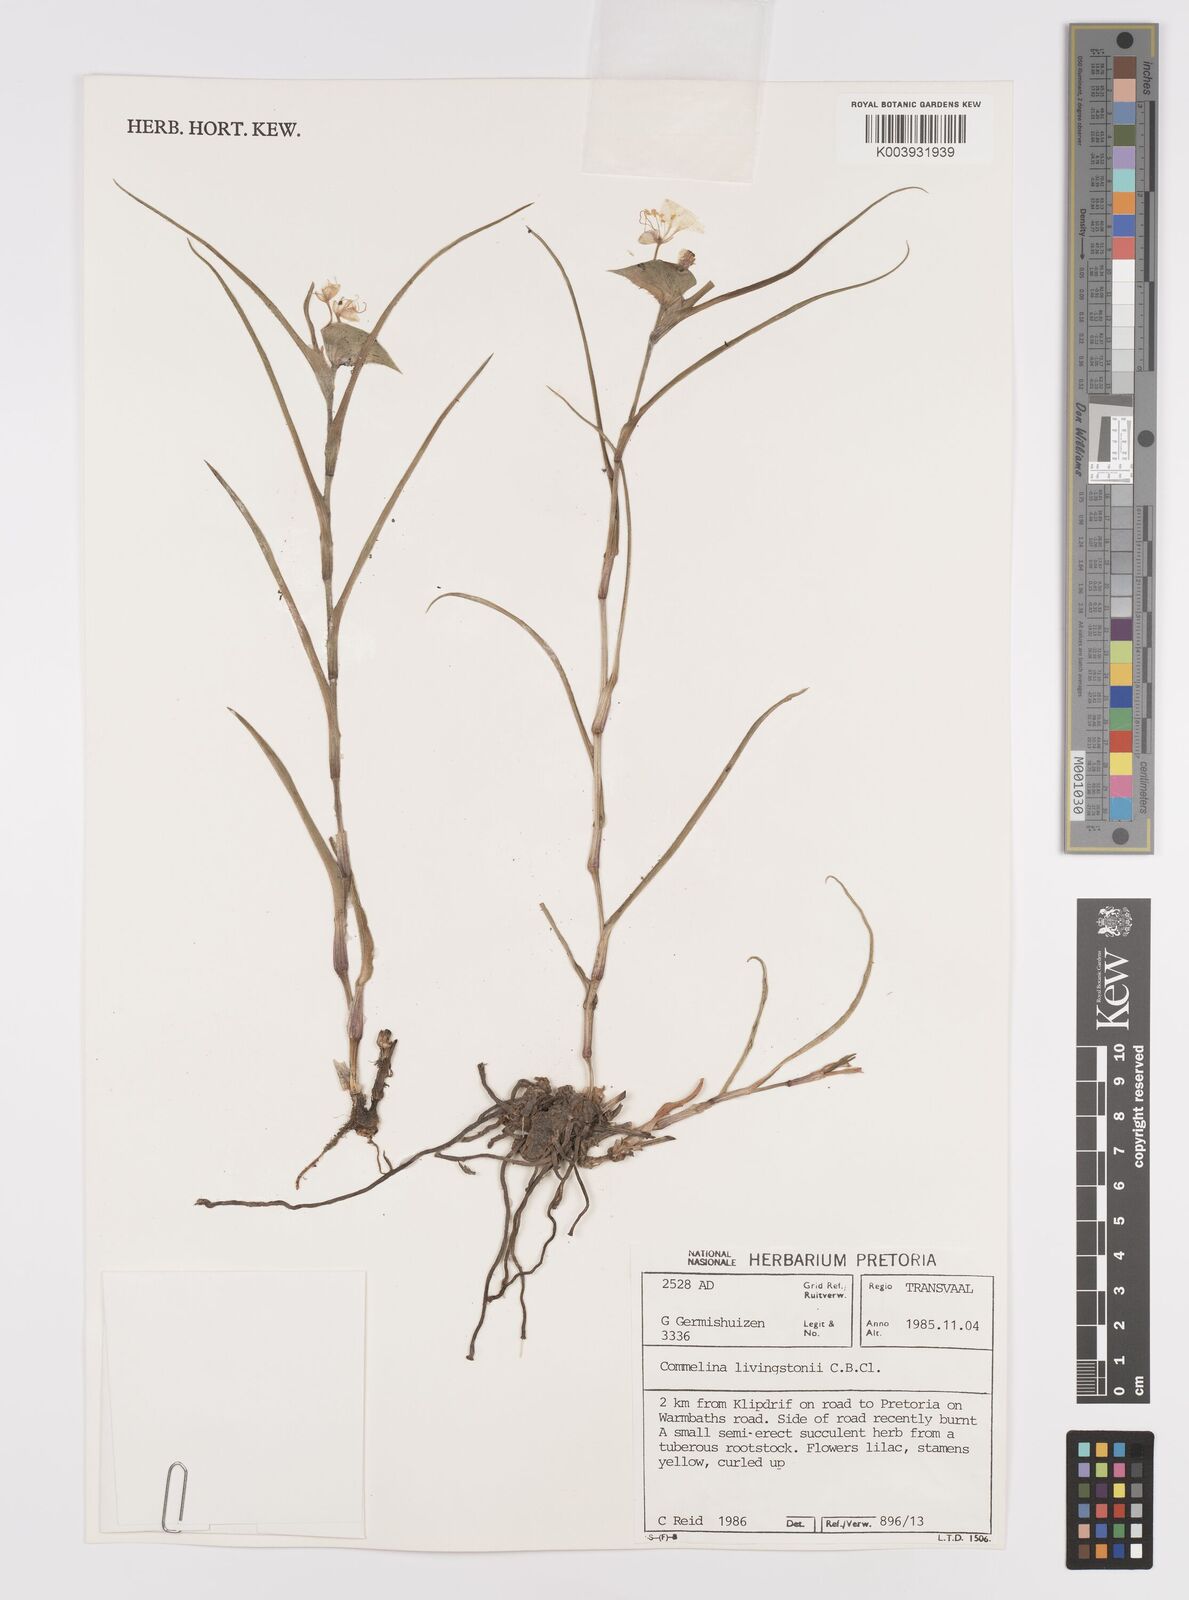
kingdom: Plantae
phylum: Tracheophyta
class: Liliopsida
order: Commelinales
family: Commelinaceae
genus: Commelina
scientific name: Commelina erecta
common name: Blousel blommetjie
